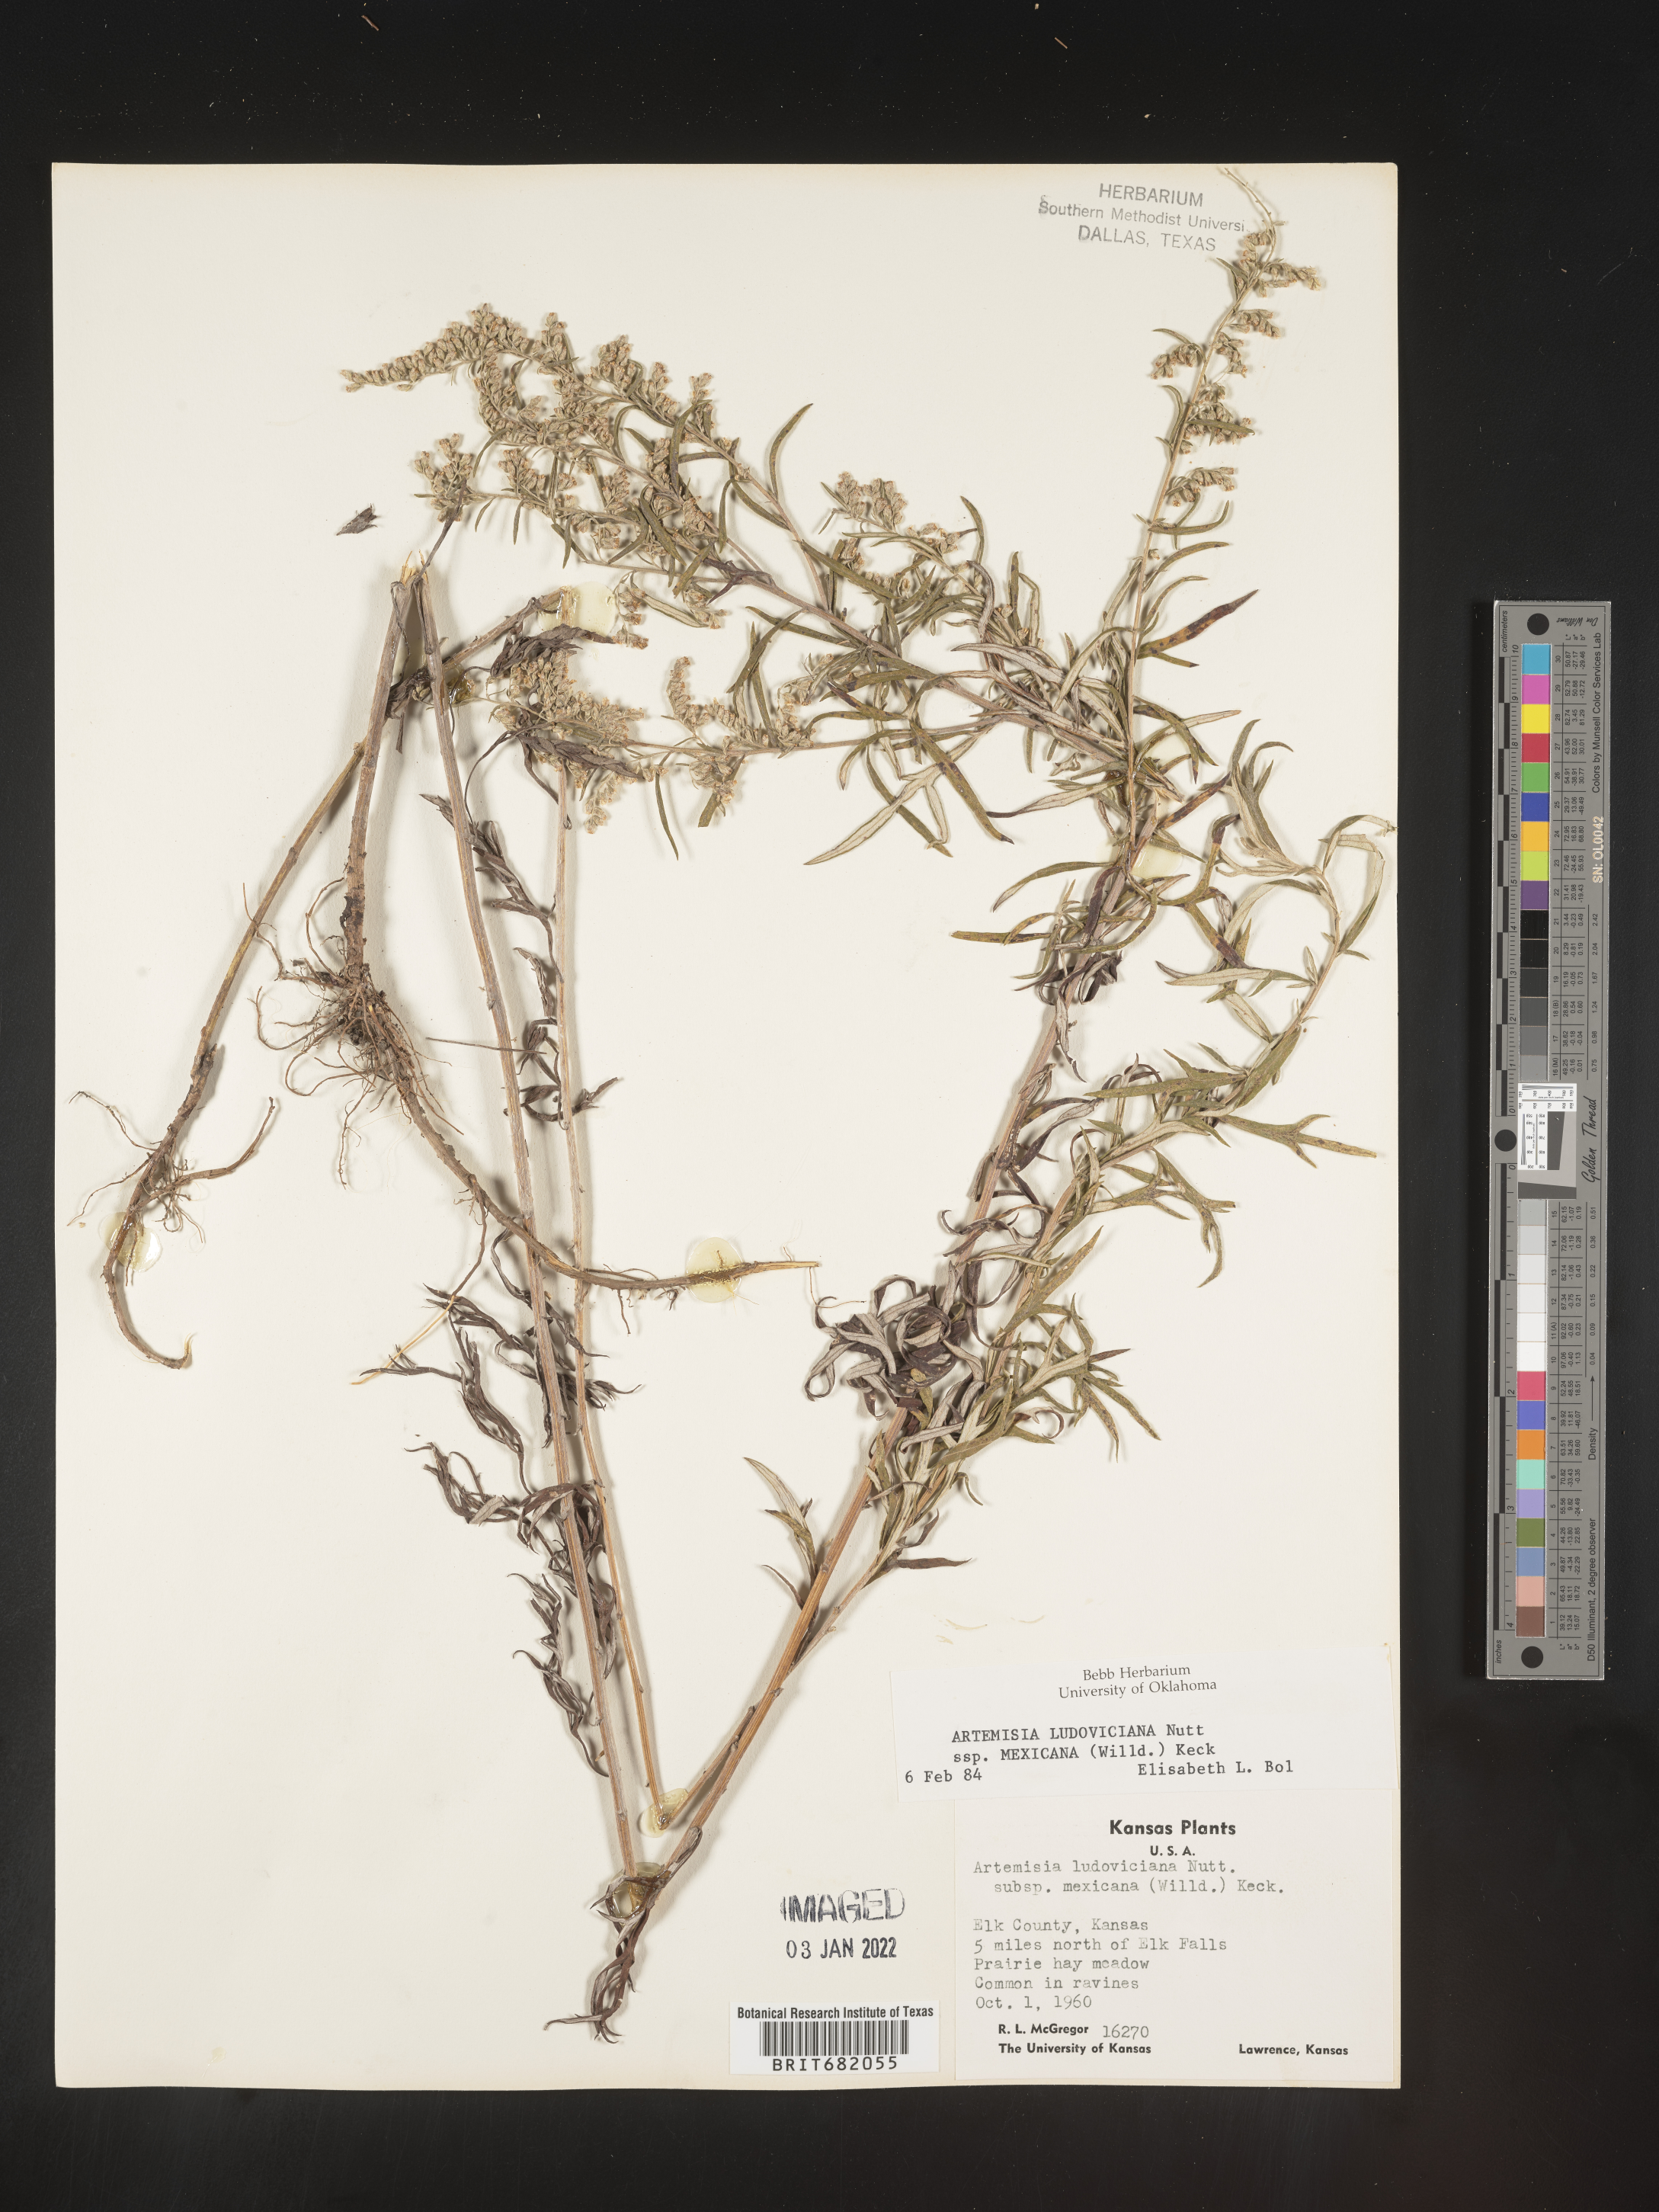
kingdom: Plantae
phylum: Tracheophyta
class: Magnoliopsida
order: Asterales
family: Asteraceae
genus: Artemisia
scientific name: Artemisia ludoviciana
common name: Western mugwort
